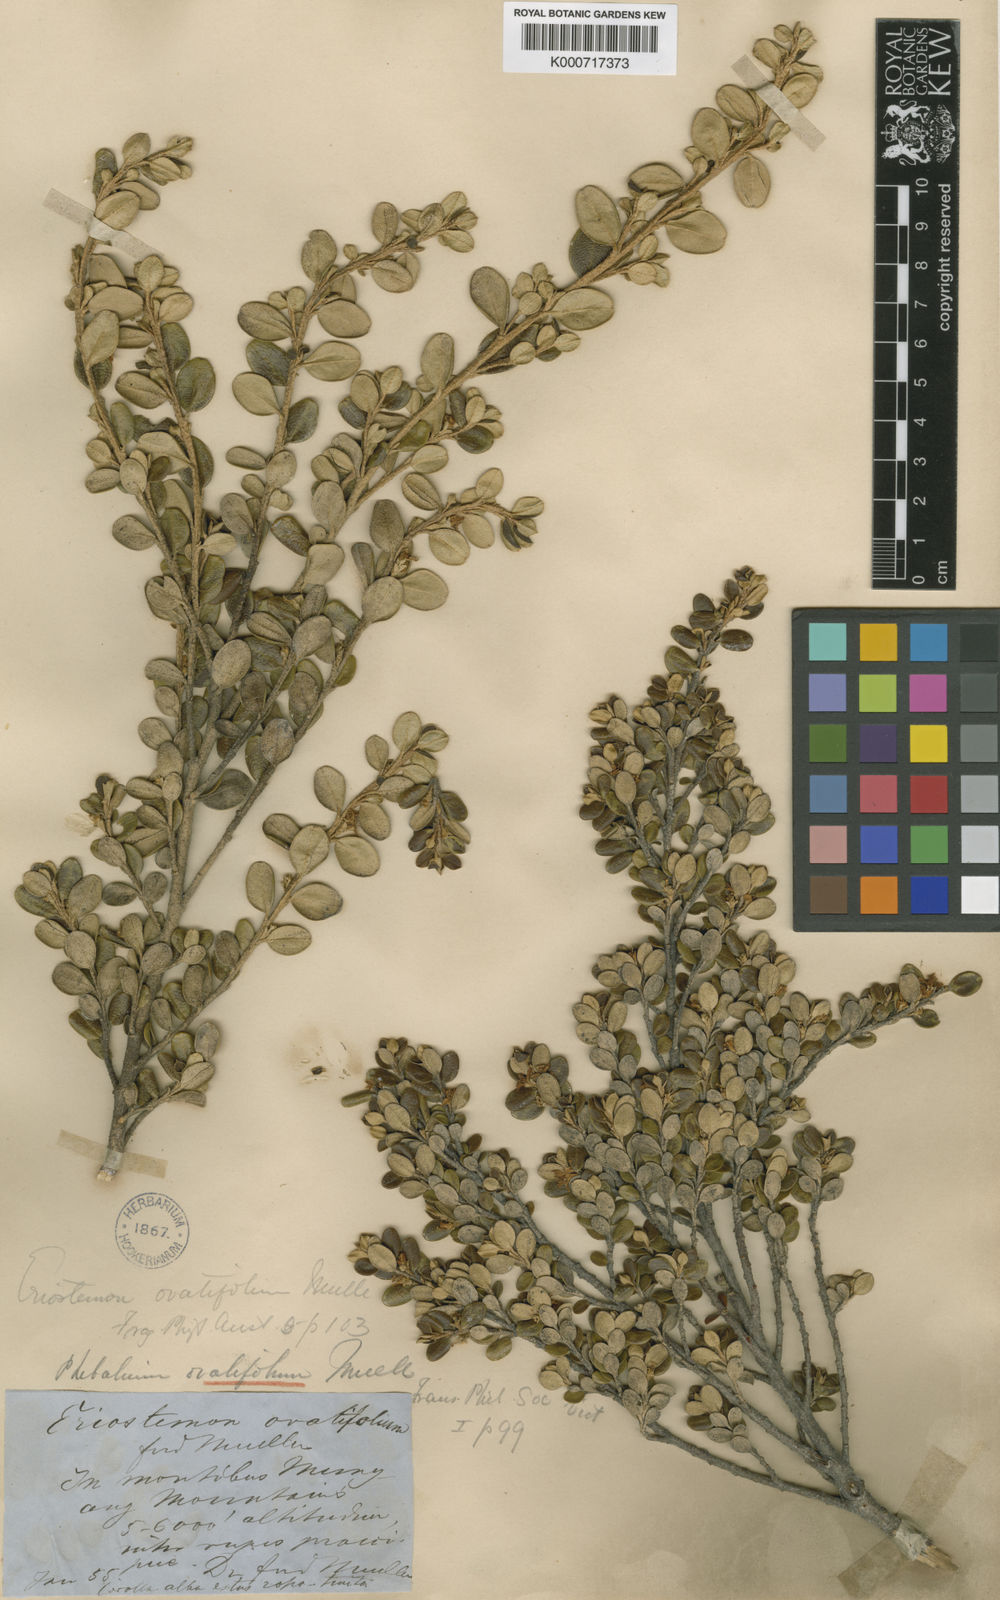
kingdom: Plantae
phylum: Tracheophyta
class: Magnoliopsida
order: Sapindales
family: Rutaceae
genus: Phebalium
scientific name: Phebalium
